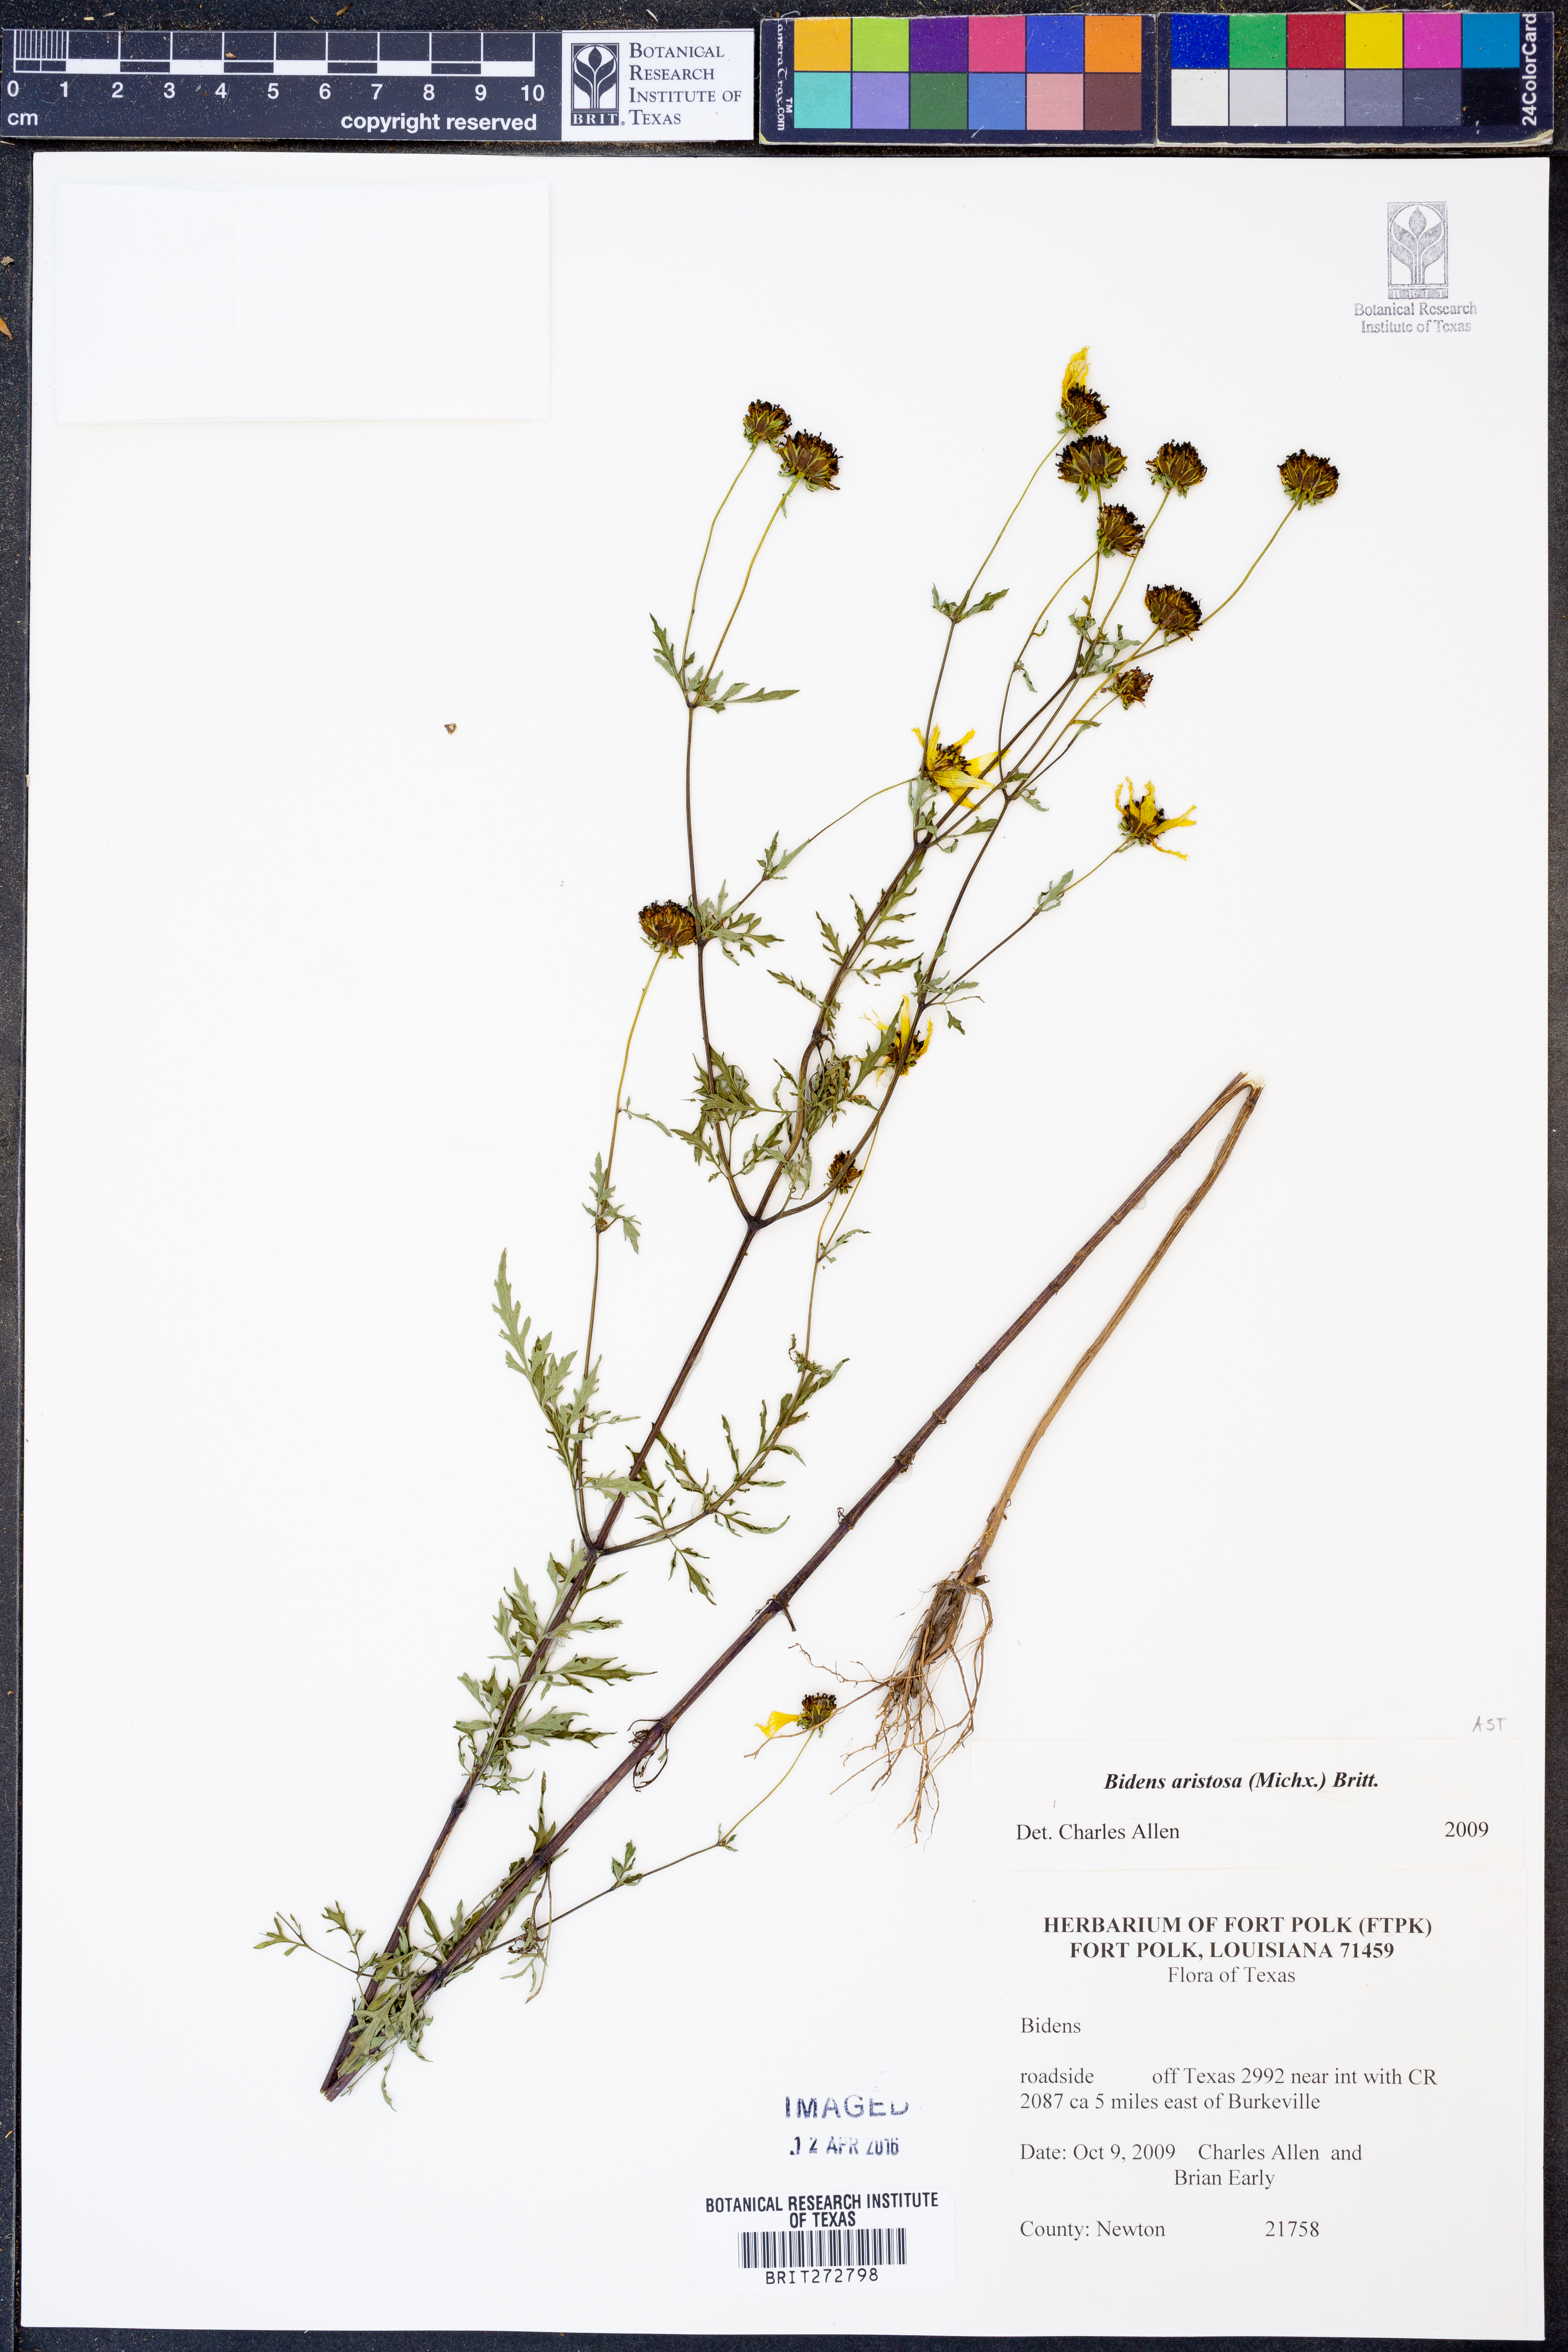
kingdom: Plantae
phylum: Tracheophyta
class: Magnoliopsida
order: Asterales
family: Asteraceae
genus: Bidens
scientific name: Bidens aristosa
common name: Western tickseed
